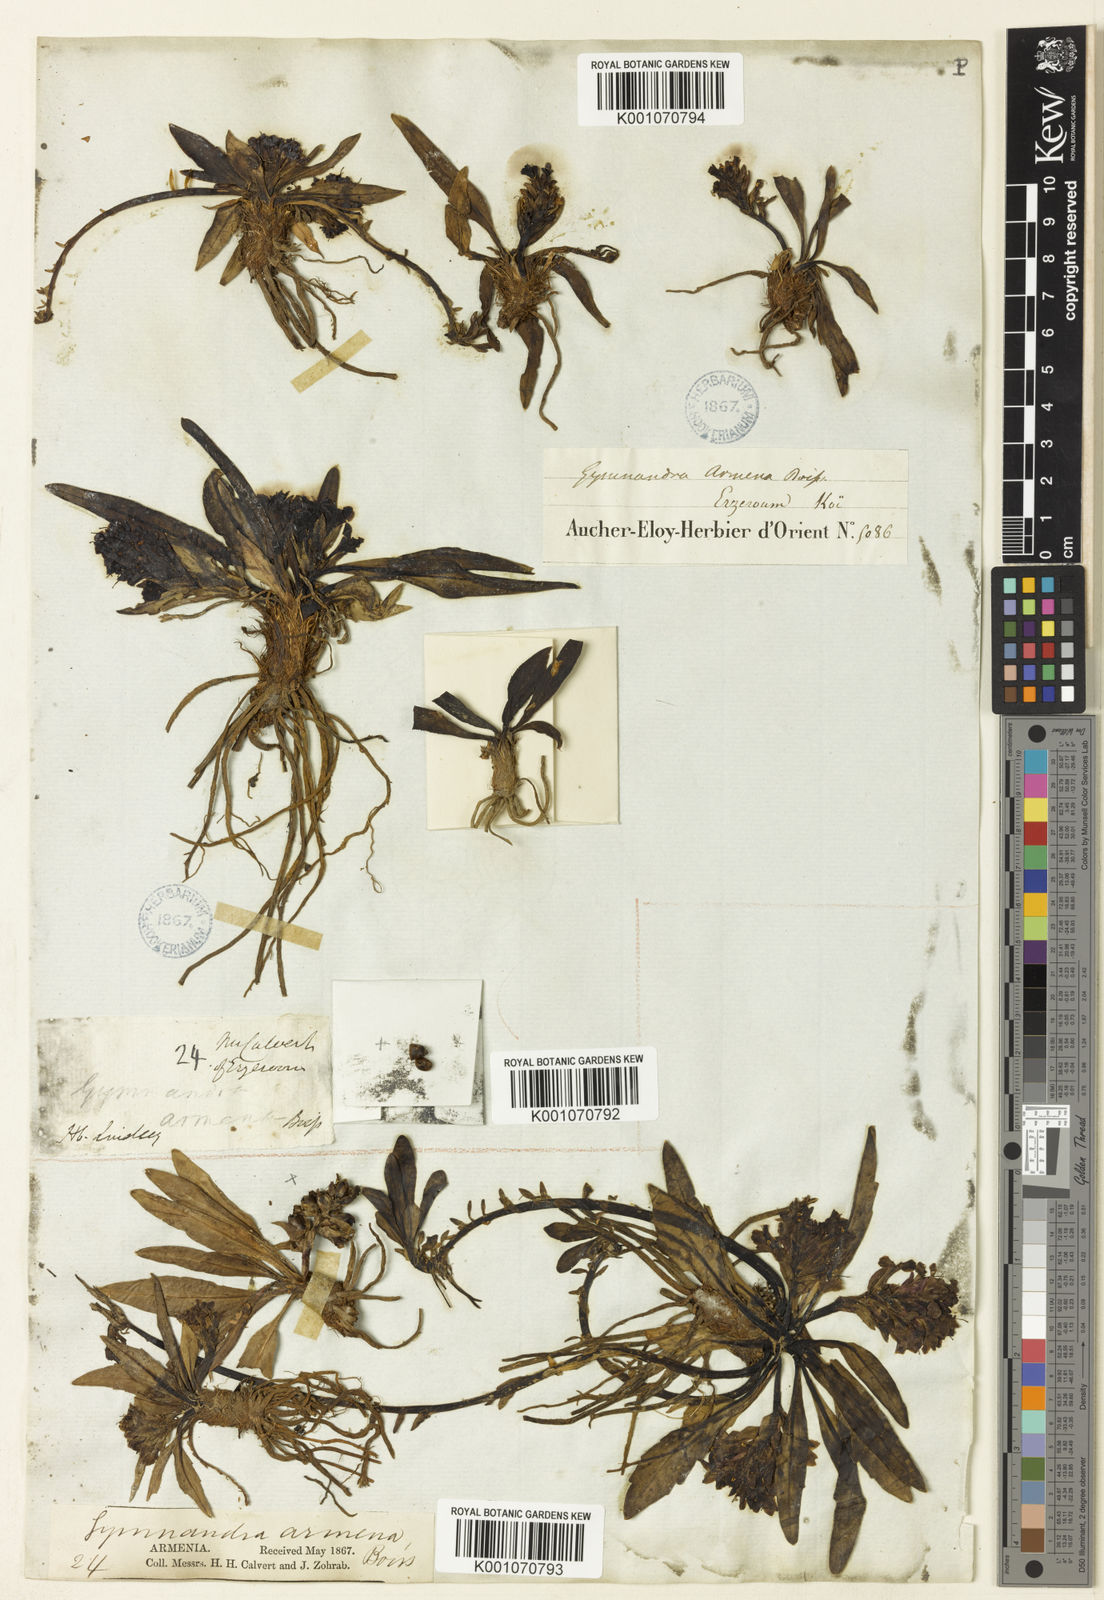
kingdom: Plantae
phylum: Tracheophyta
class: Magnoliopsida
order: Lamiales
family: Plantaginaceae
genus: Lagotis
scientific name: Lagotis stolonifera
